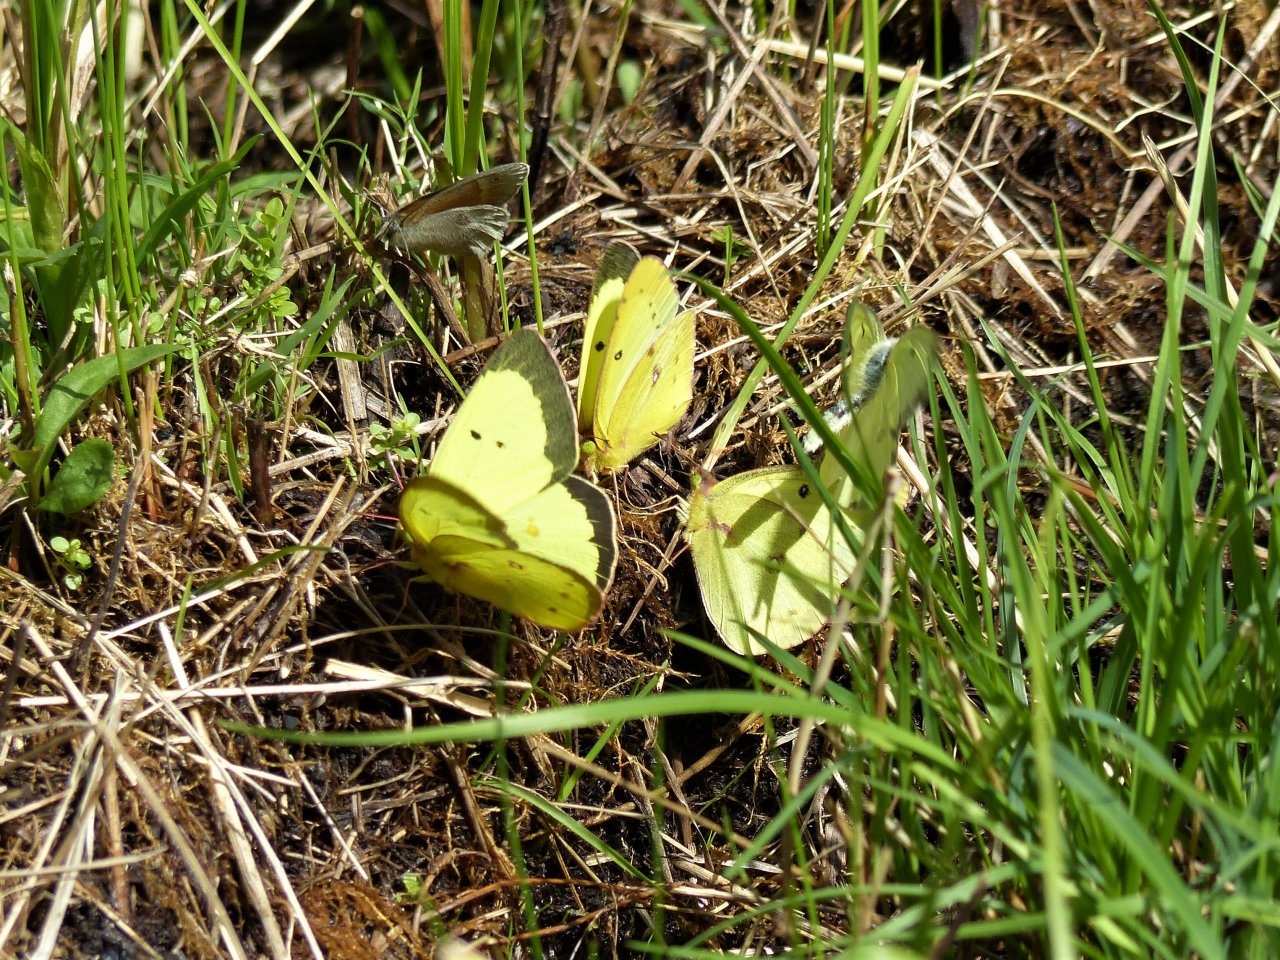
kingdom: Animalia
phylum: Arthropoda
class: Insecta
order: Lepidoptera
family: Pieridae
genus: Colias
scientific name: Colias philodice
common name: Clouded Sulphur
